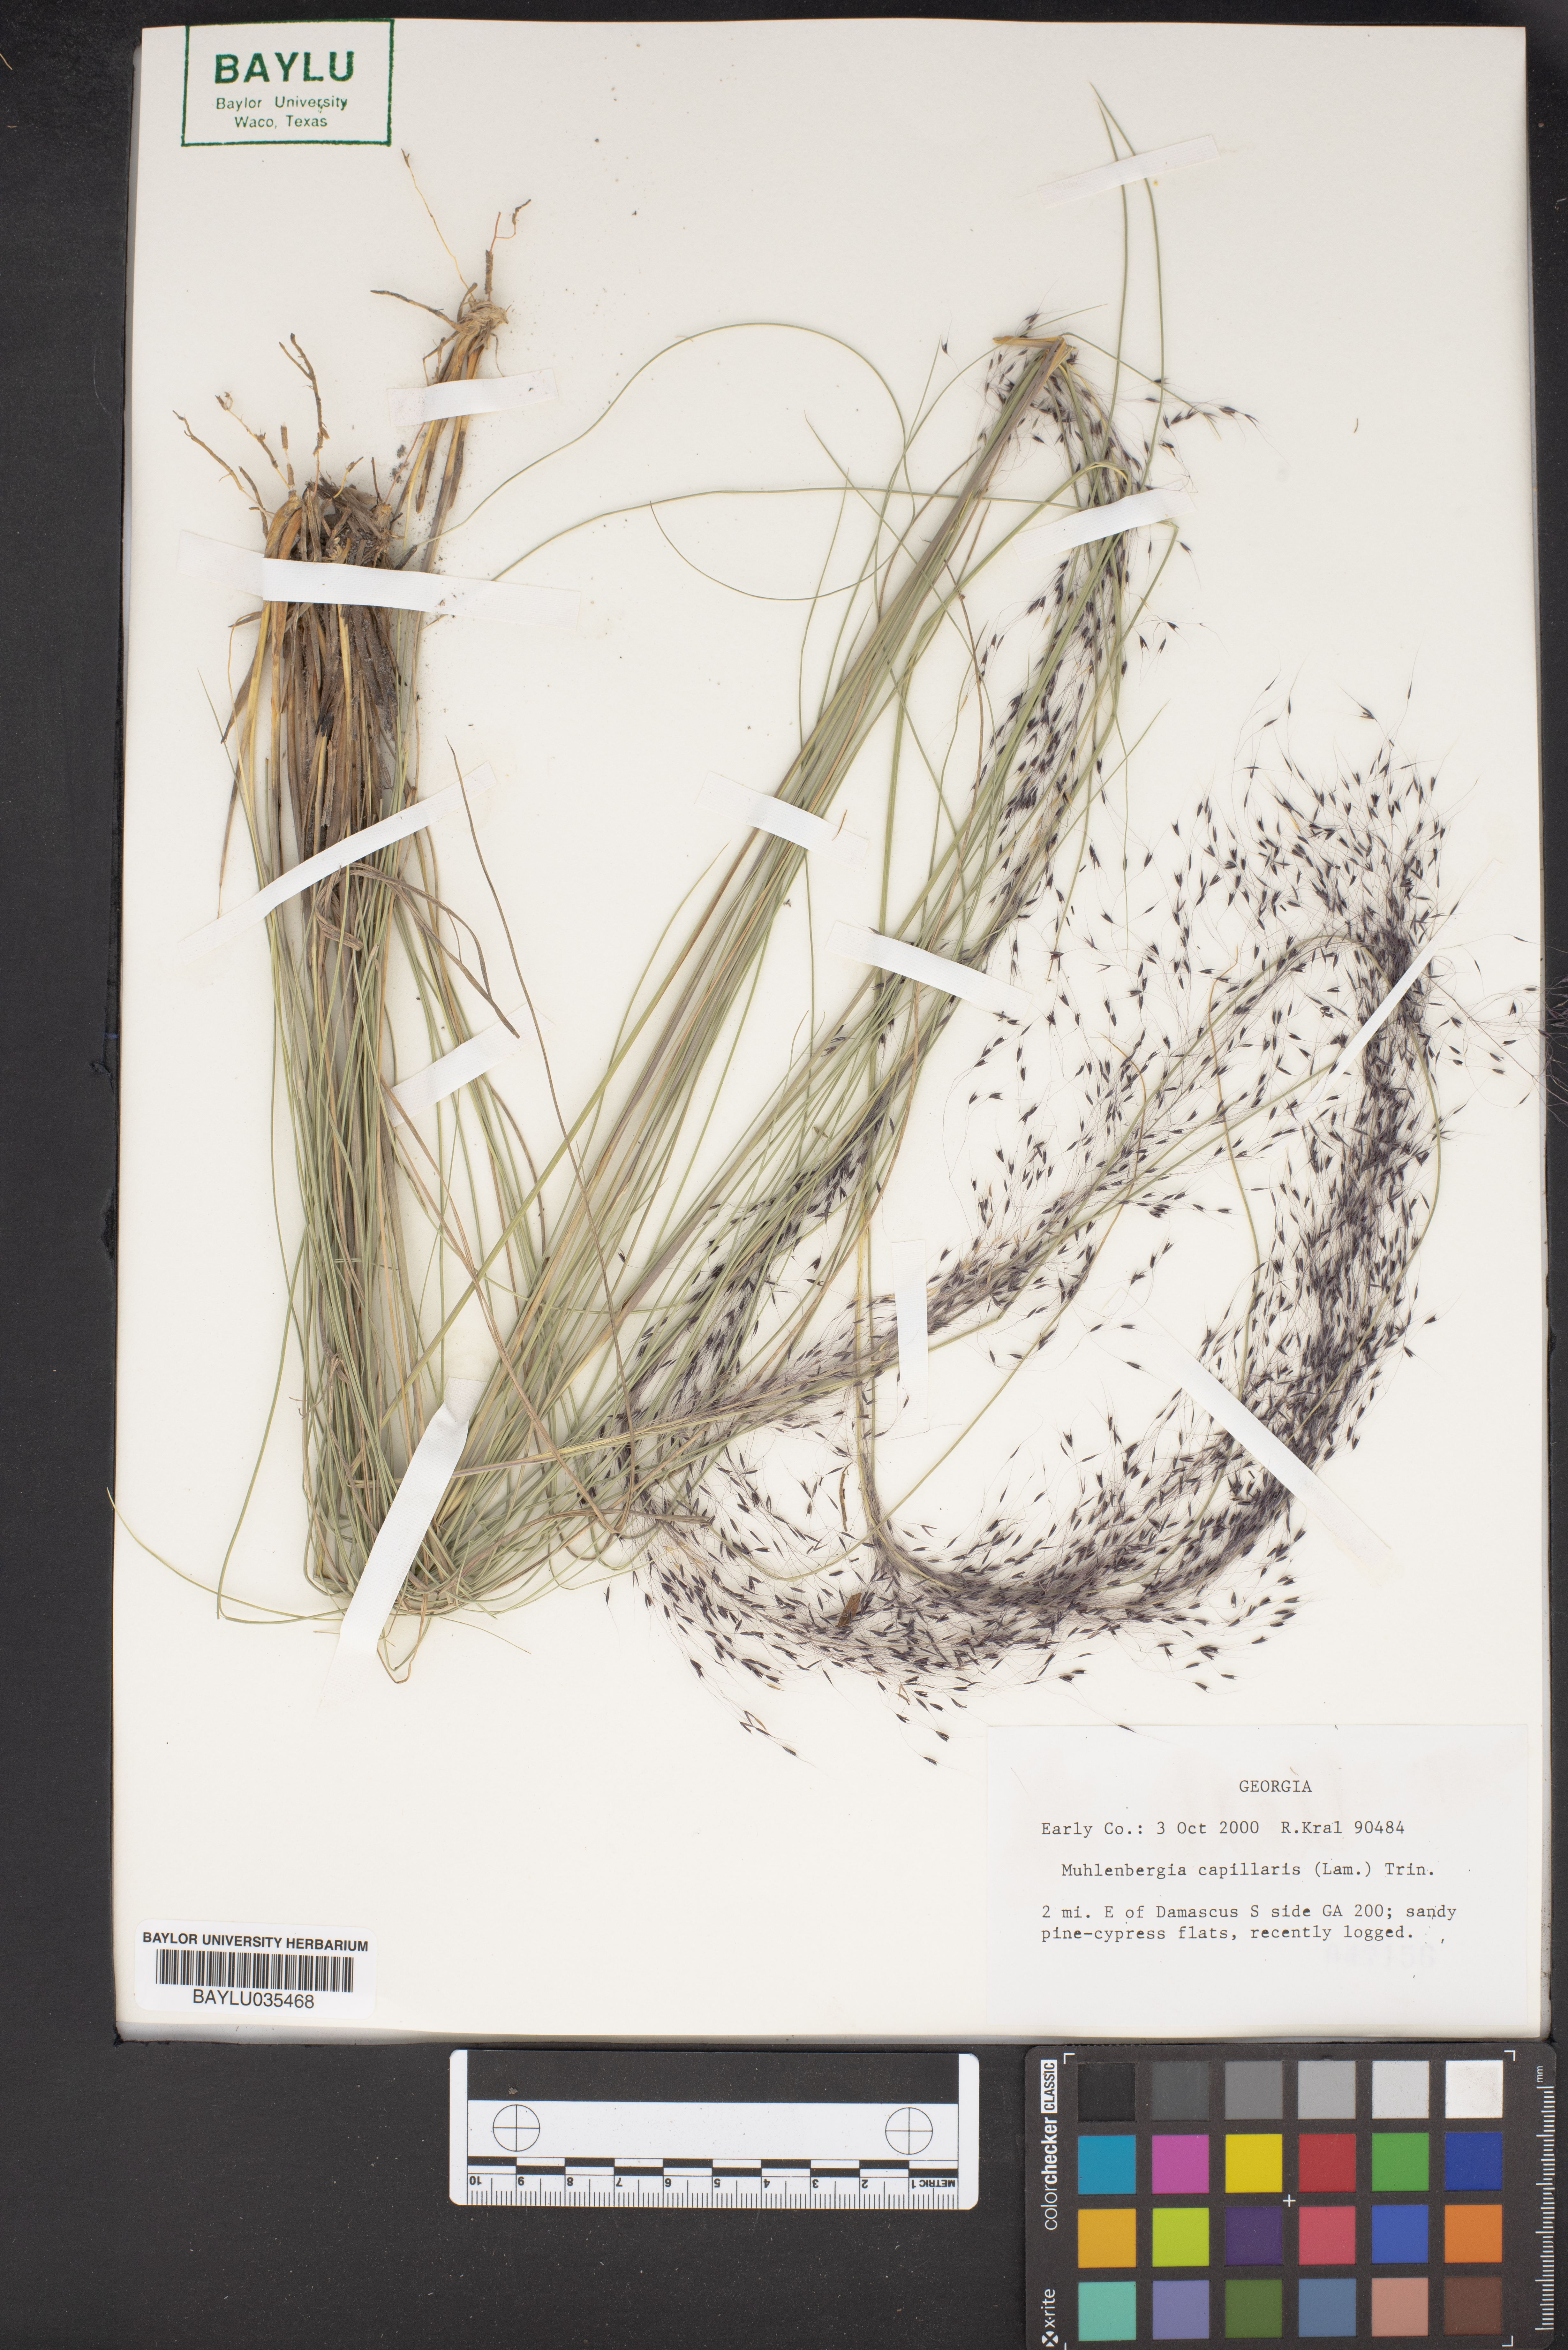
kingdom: Plantae
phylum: Tracheophyta
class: Liliopsida
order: Poales
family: Poaceae
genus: Muhlenbergia
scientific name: Muhlenbergia capillaris
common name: Purple grass
